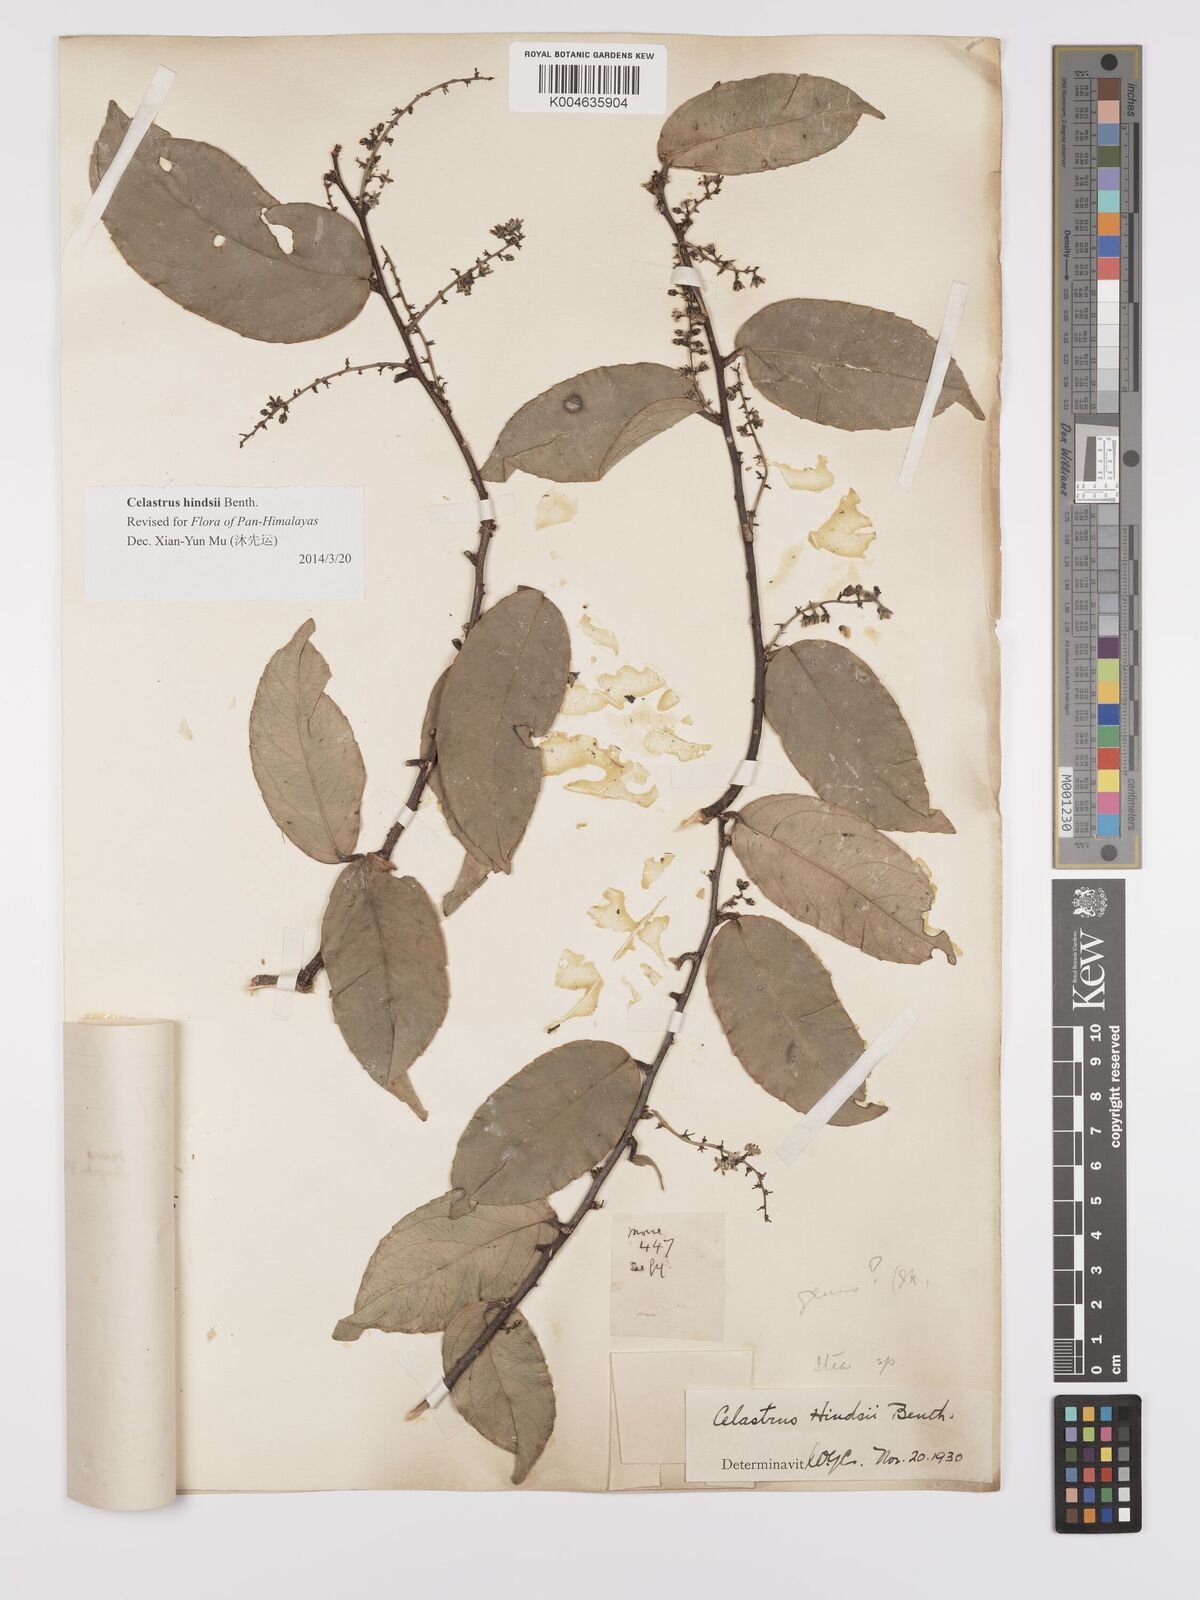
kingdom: Plantae
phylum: Tracheophyta
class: Magnoliopsida
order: Celastrales
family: Celastraceae
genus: Celastrus
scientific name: Celastrus hindsii
